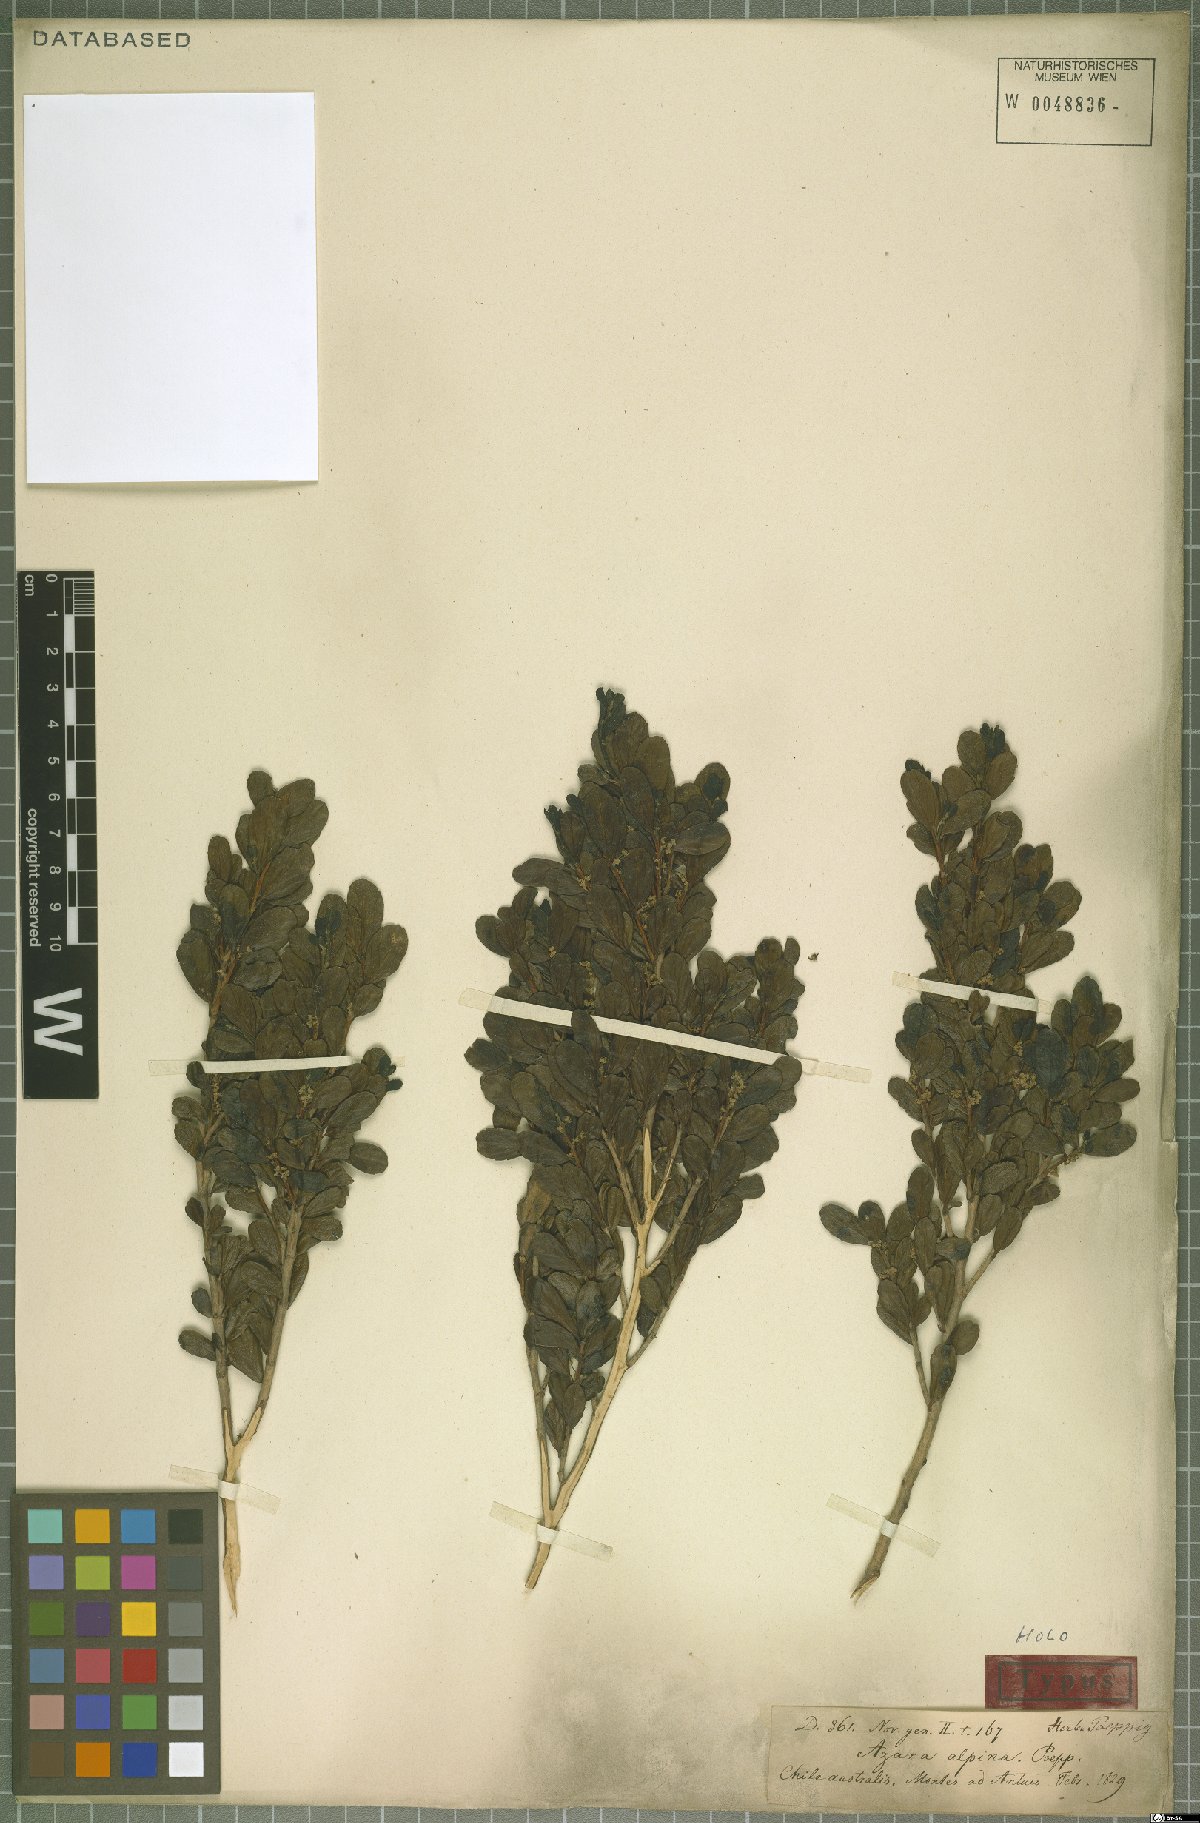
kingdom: Plantae
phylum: Tracheophyta
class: Magnoliopsida
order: Malpighiales
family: Salicaceae
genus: Azara
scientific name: Azara alpina
